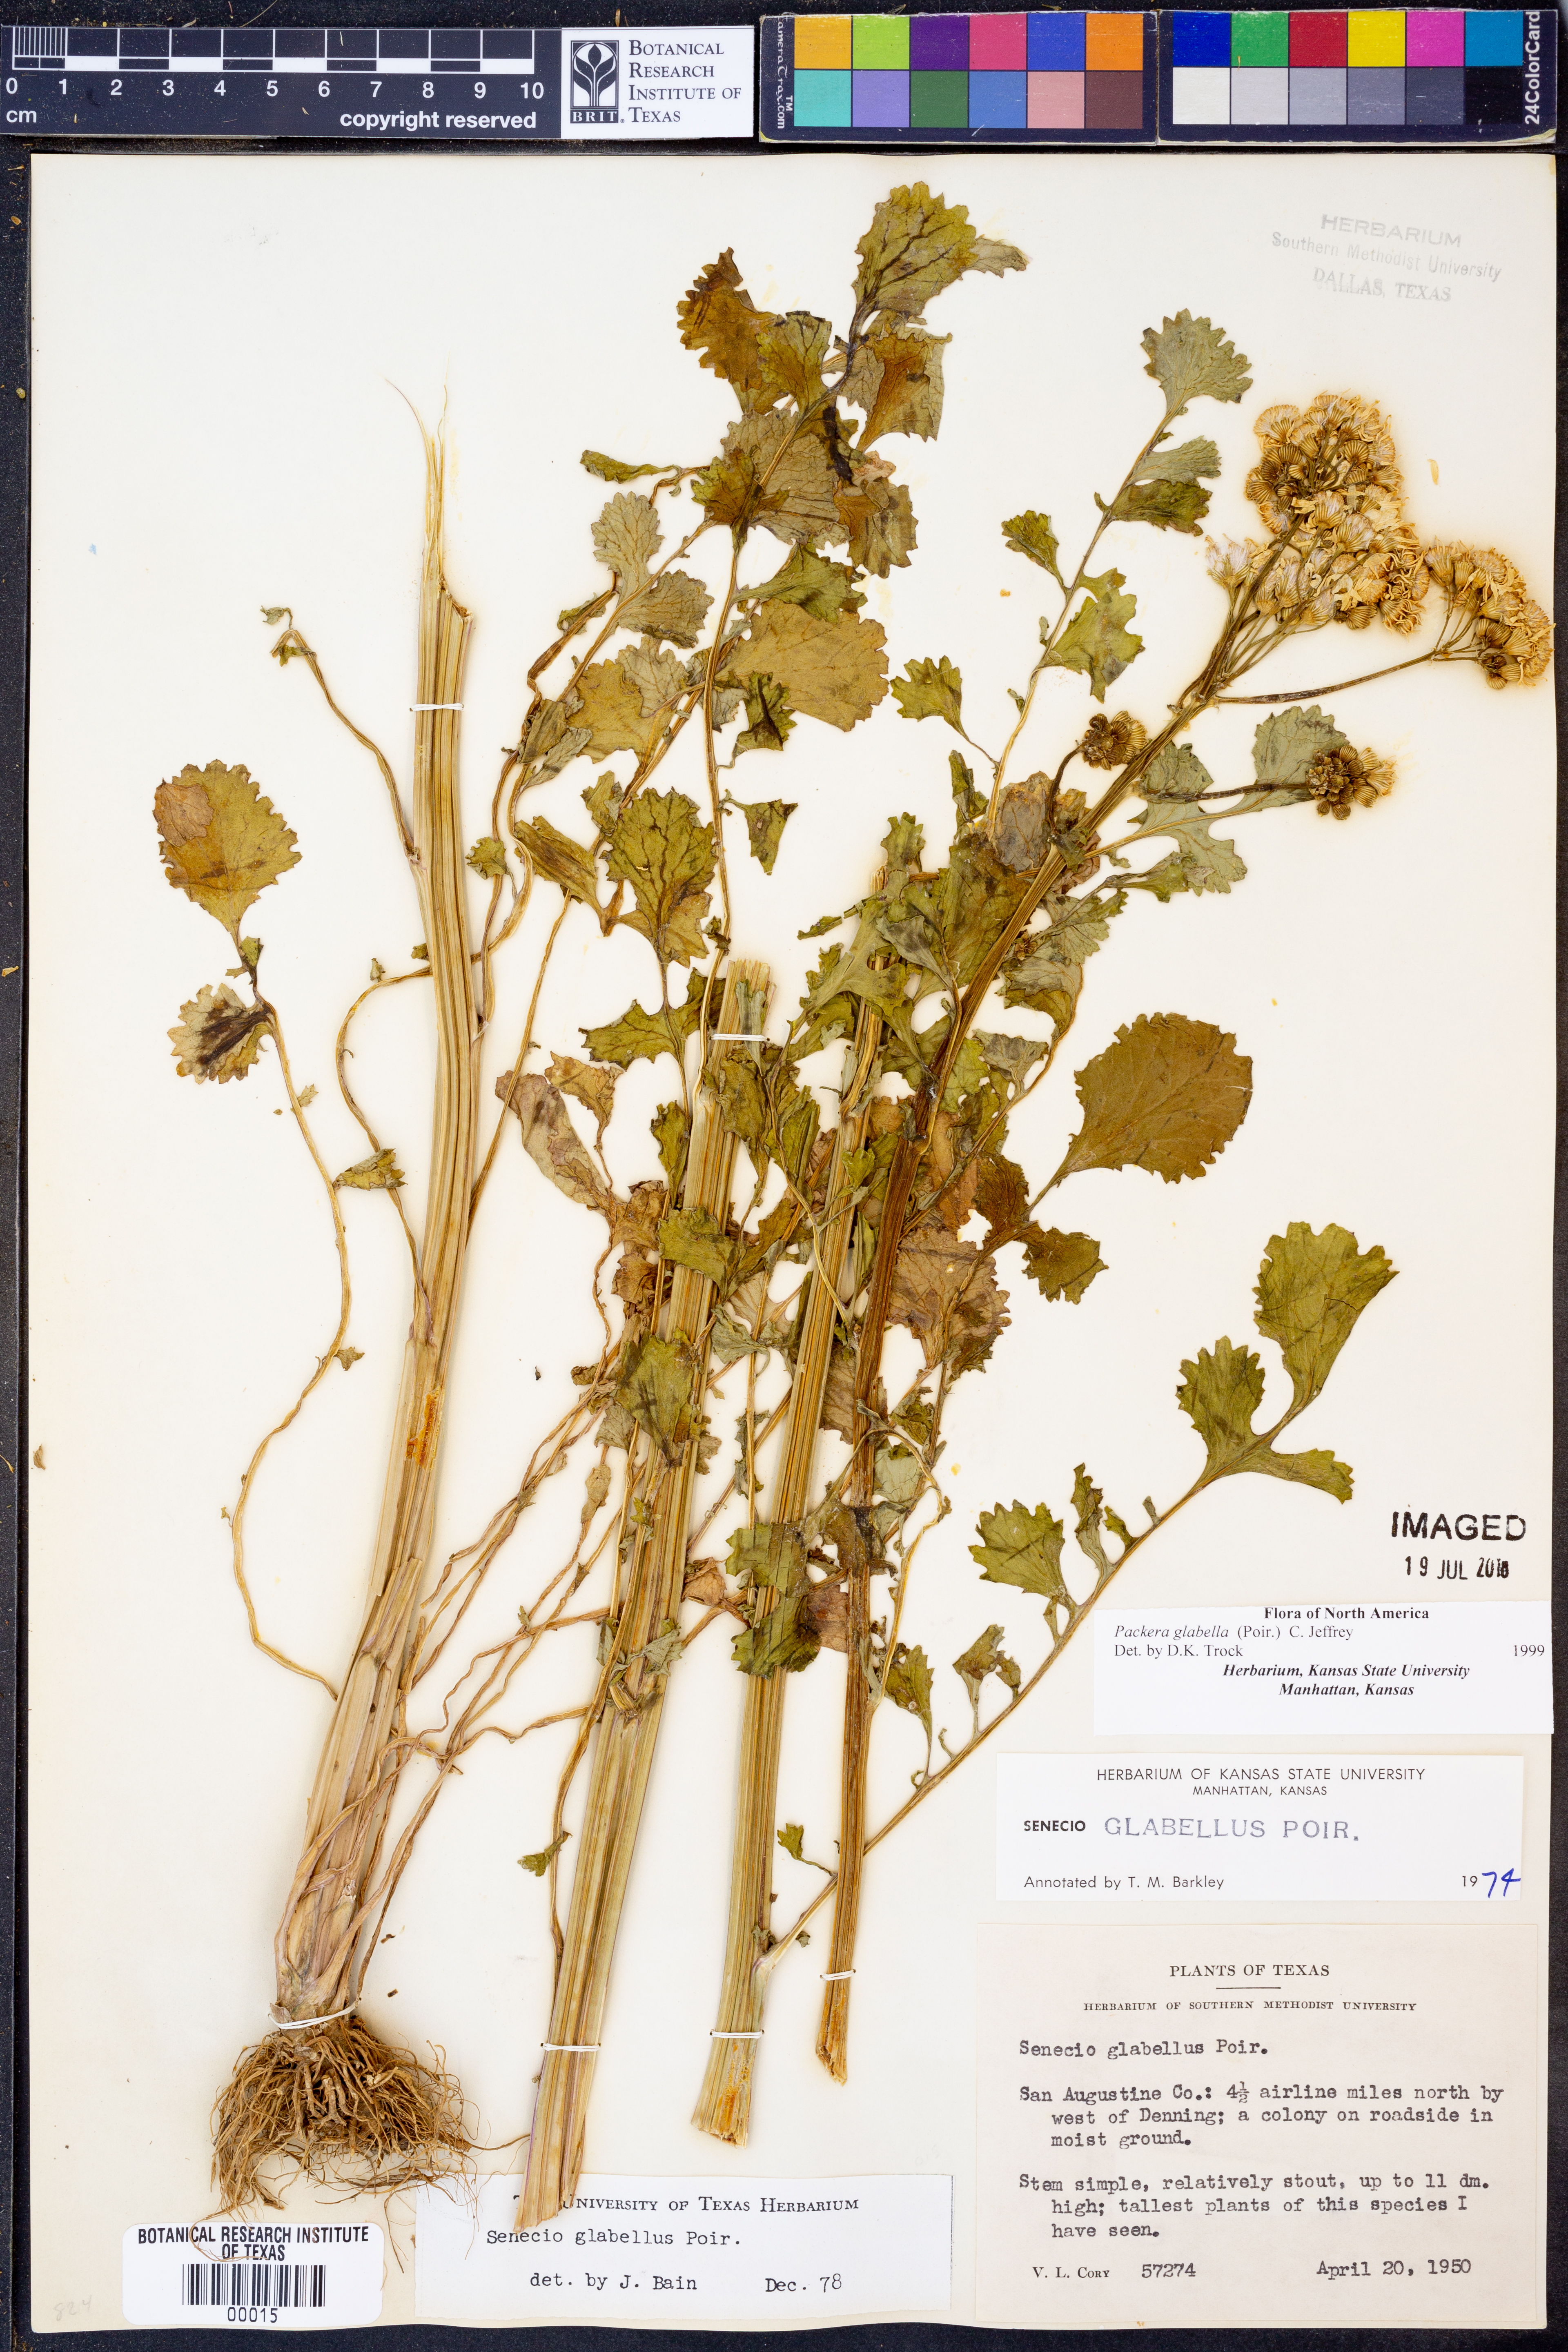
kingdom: Plantae
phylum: Tracheophyta
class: Magnoliopsida
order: Asterales
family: Asteraceae
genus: Packera
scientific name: Packera glabella
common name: Butterweed
